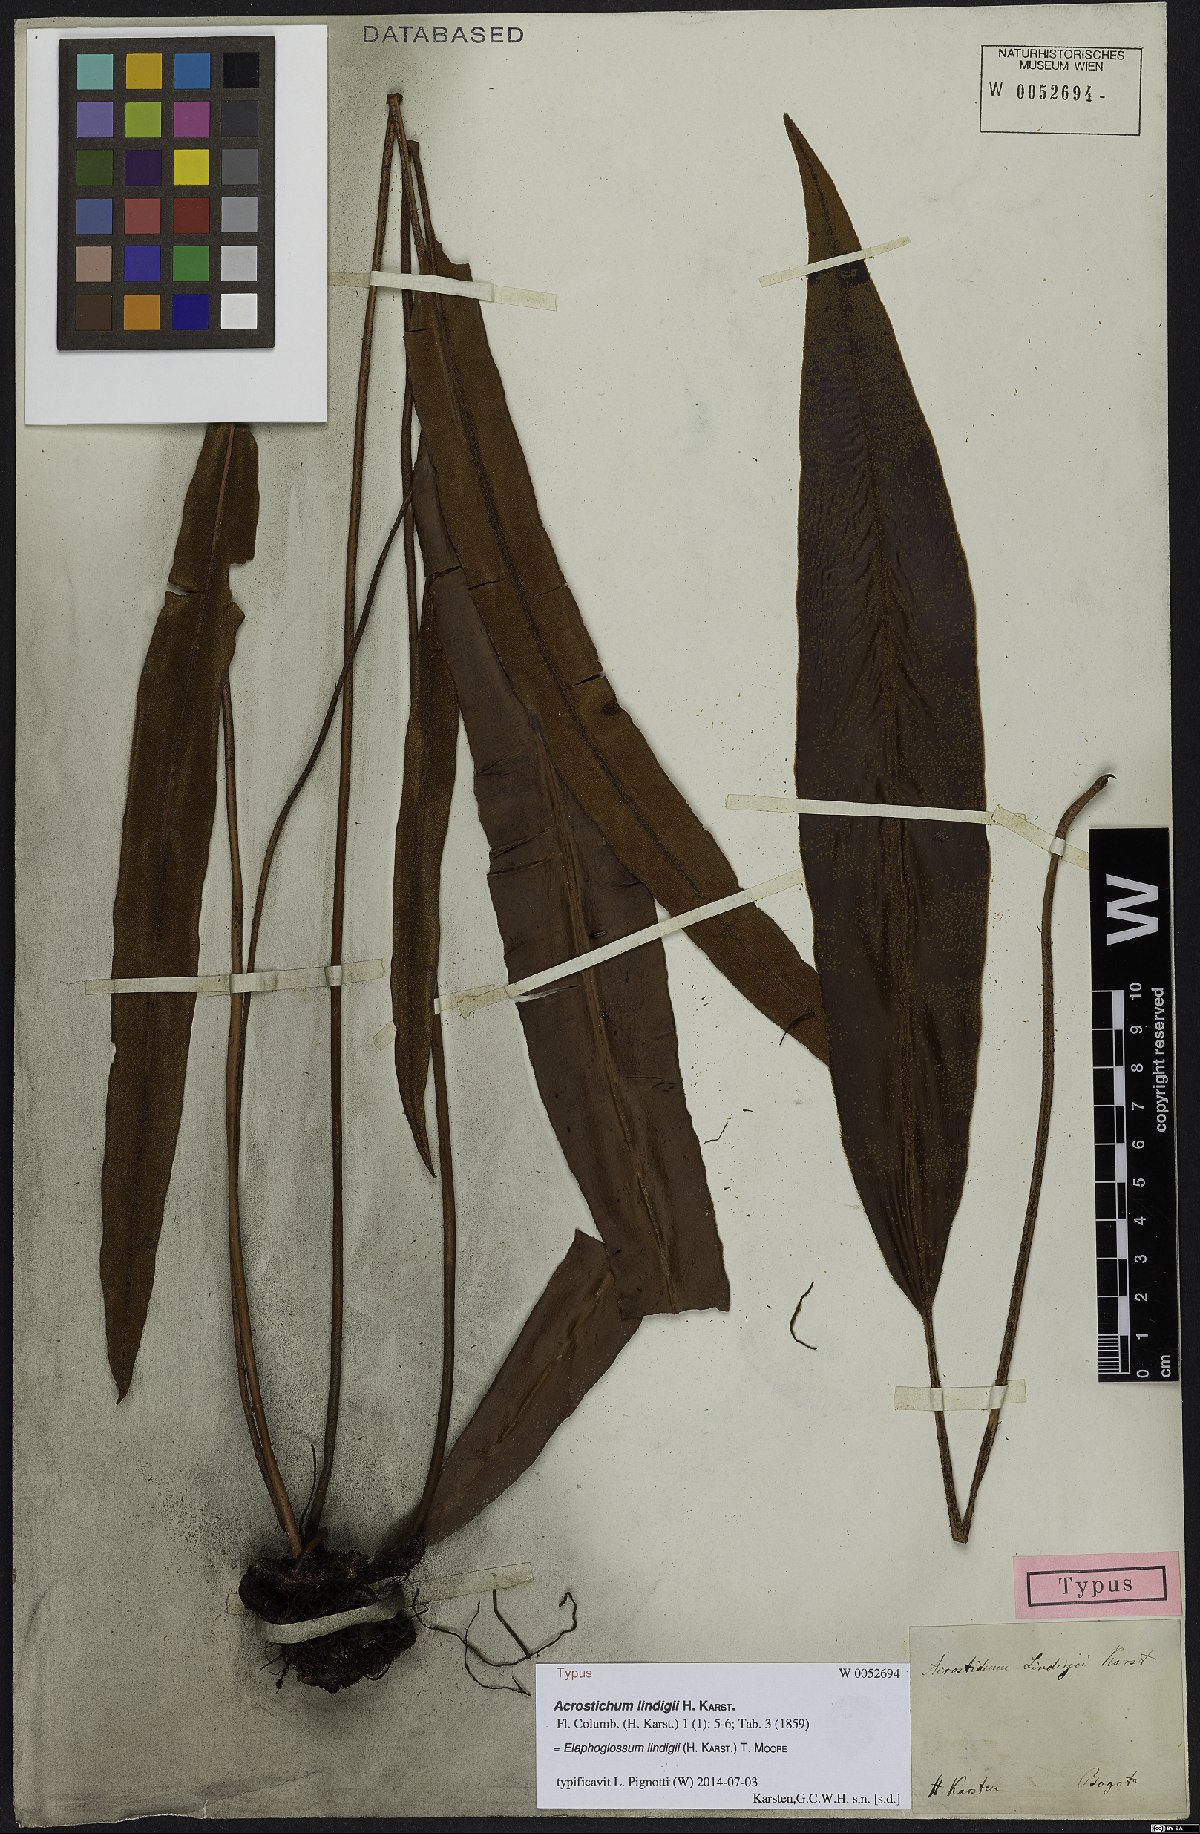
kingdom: Plantae
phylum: Tracheophyta
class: Polypodiopsida
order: Polypodiales
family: Dryopteridaceae
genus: Elaphoglossum
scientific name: Elaphoglossum lindigii
